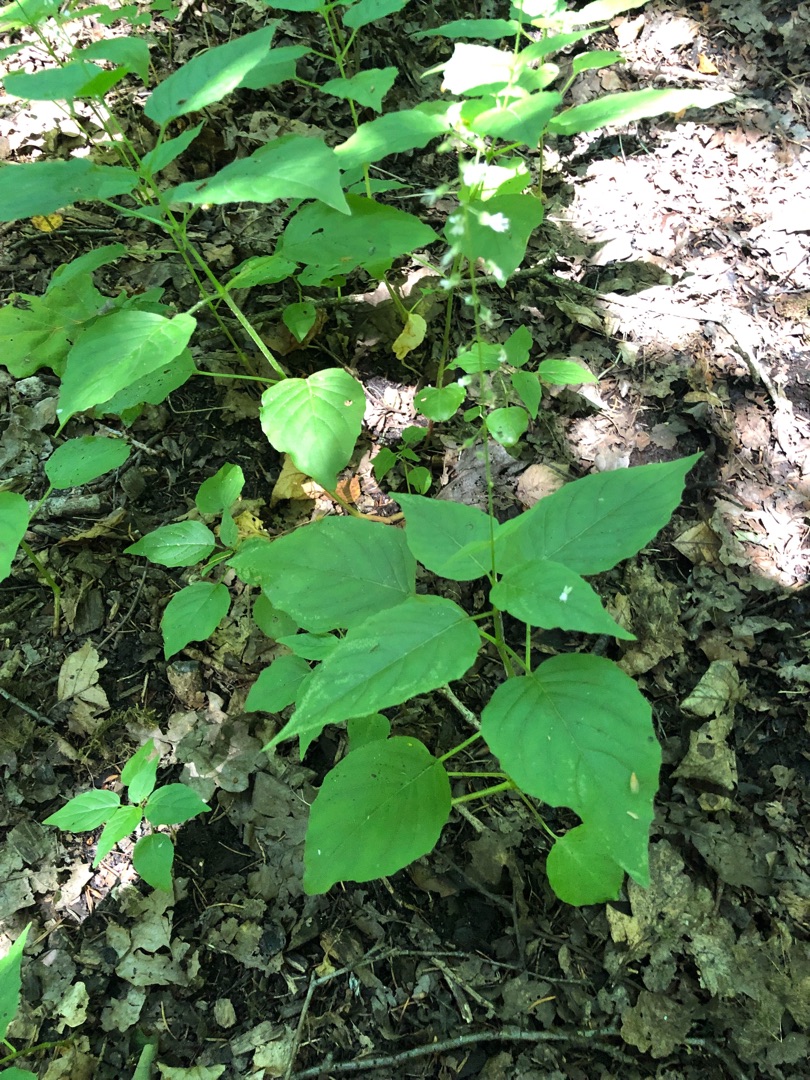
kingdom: Plantae
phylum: Tracheophyta
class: Magnoliopsida
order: Myrtales
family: Onagraceae
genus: Circaea
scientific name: Circaea lutetiana
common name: Dunet steffensurt
